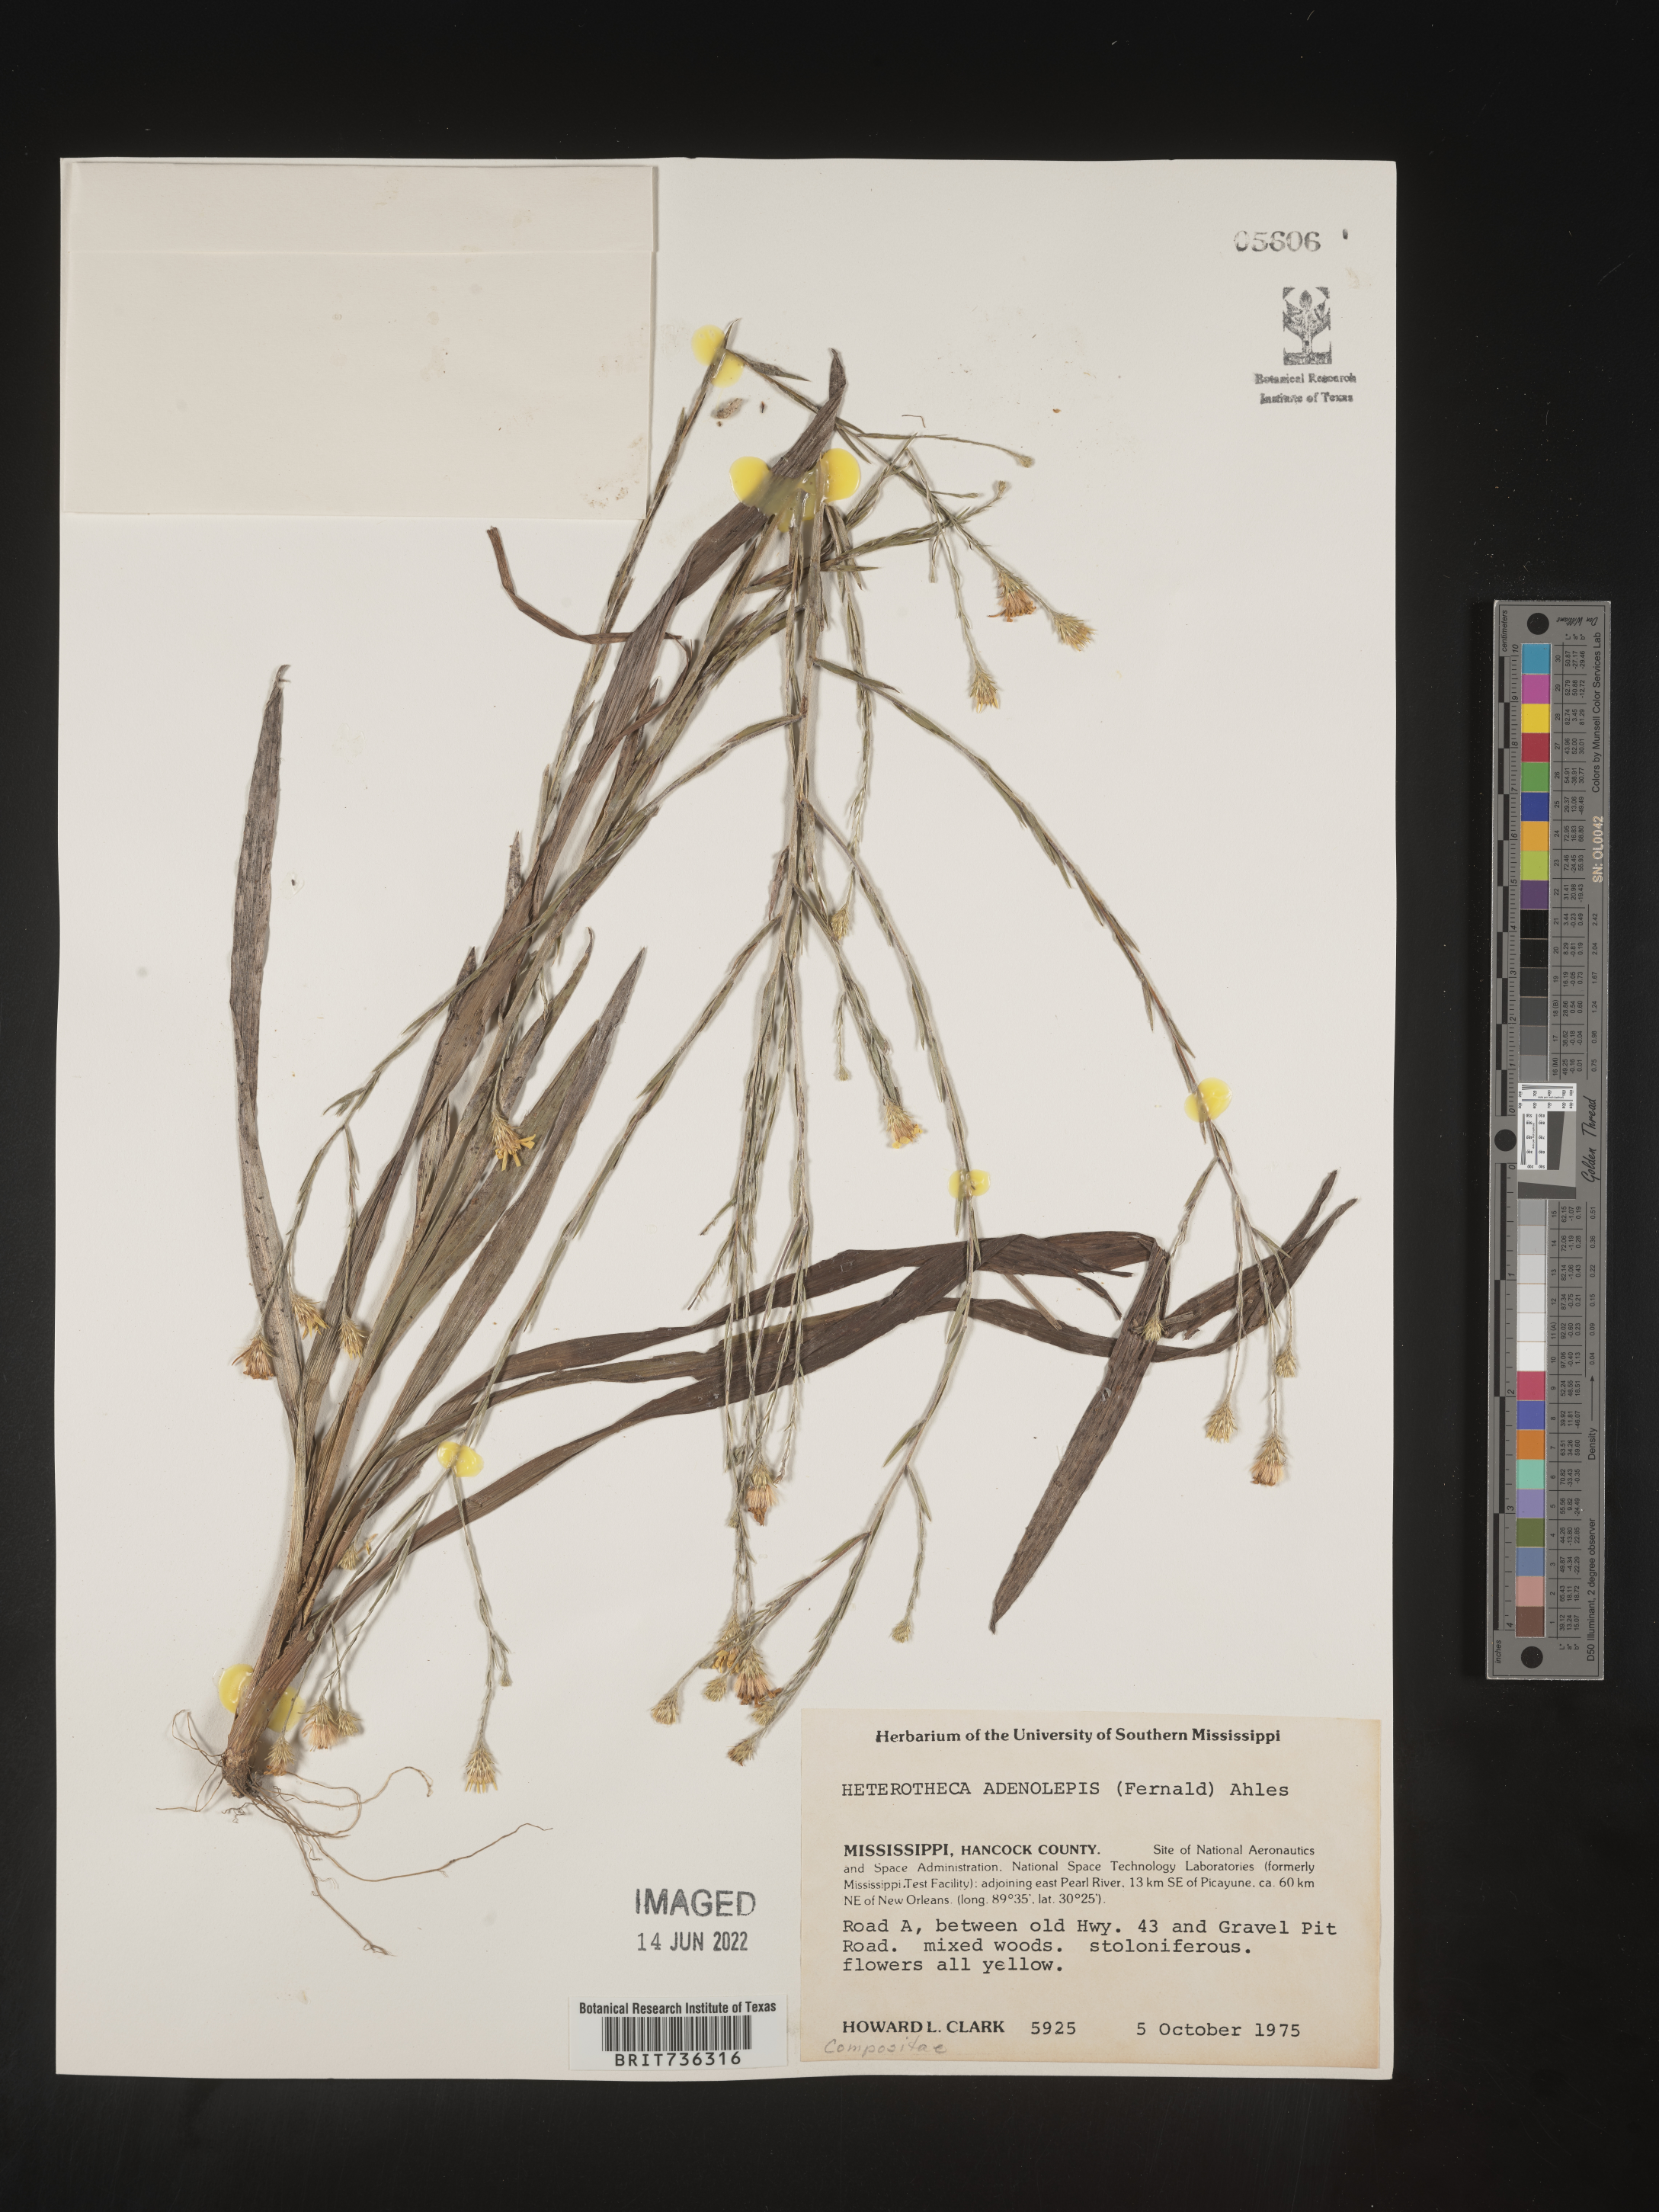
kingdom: Plantae
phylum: Tracheophyta
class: Magnoliopsida
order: Asterales
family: Asteraceae
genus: Pityopsis
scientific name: Pityopsis microcephala
